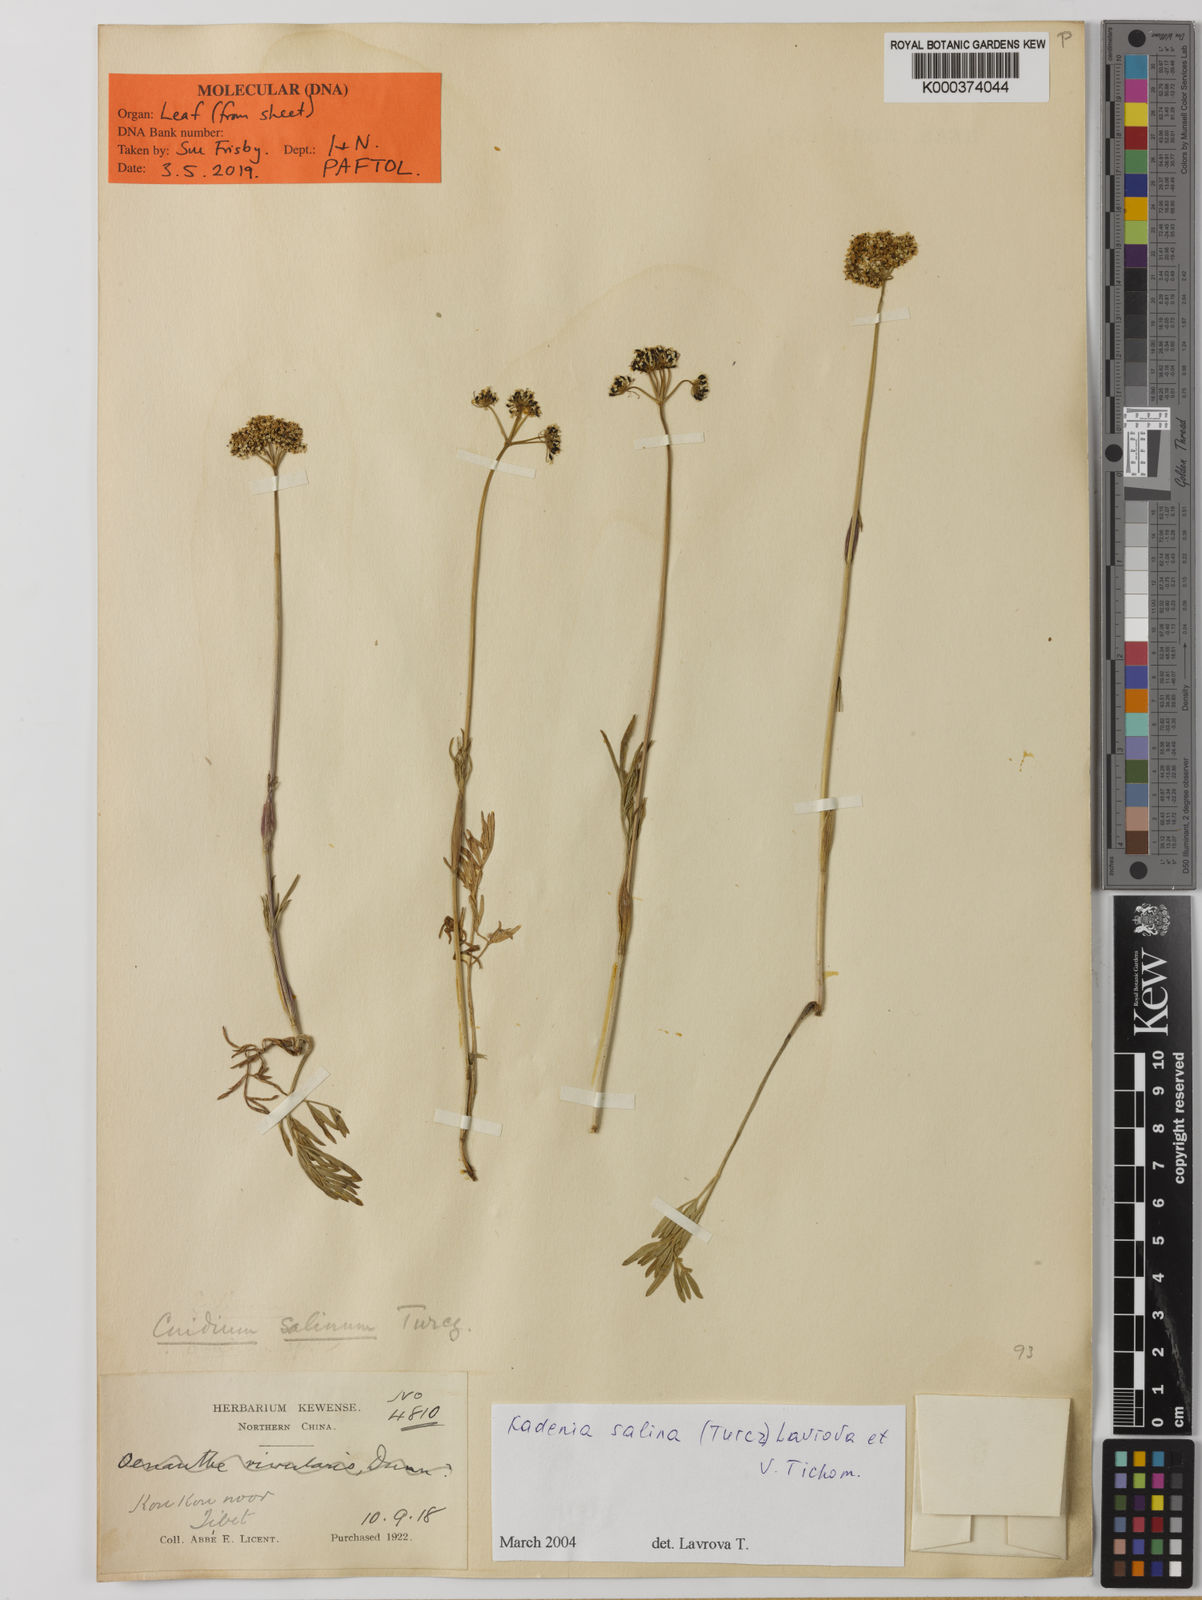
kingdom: Plantae
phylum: Tracheophyta
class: Magnoliopsida
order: Apiales
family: Apiaceae
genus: Kadenia
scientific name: Kadenia salina
